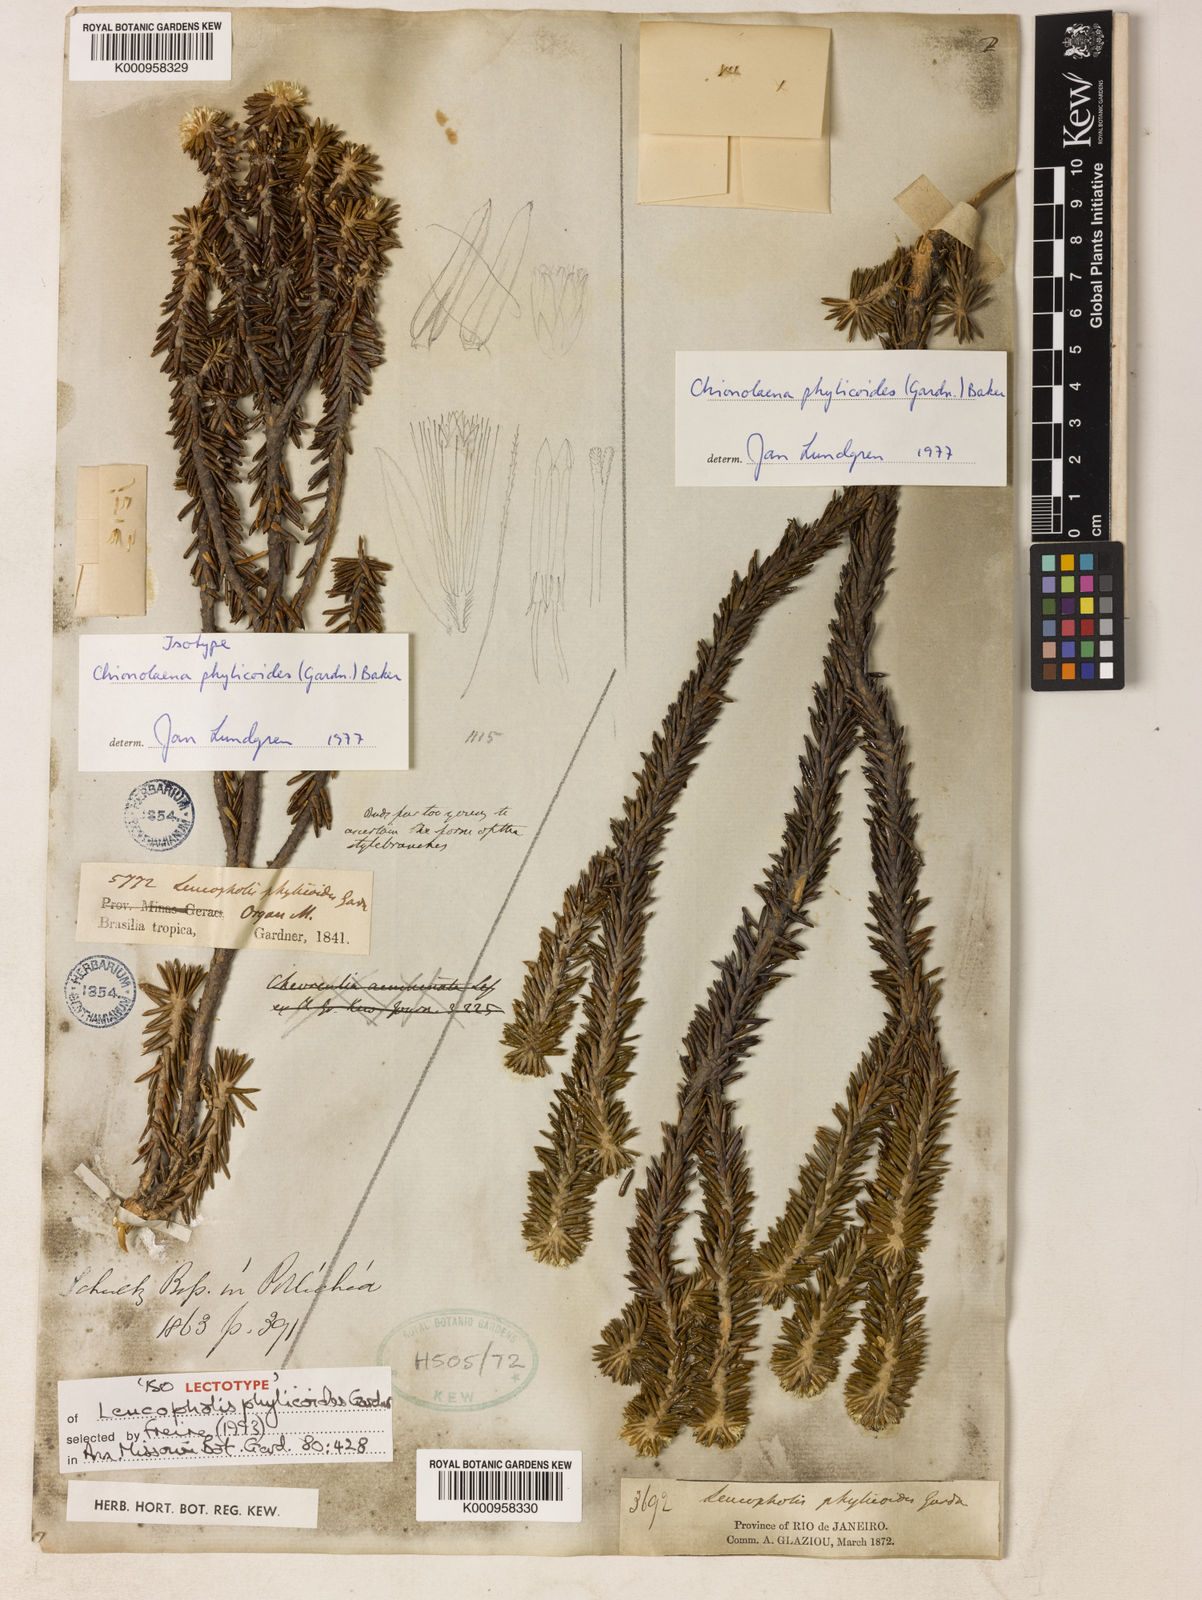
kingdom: Plantae
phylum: Tracheophyta
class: Magnoliopsida
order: Asterales
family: Asteraceae
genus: Chionolaena
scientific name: Chionolaena phylicoides
